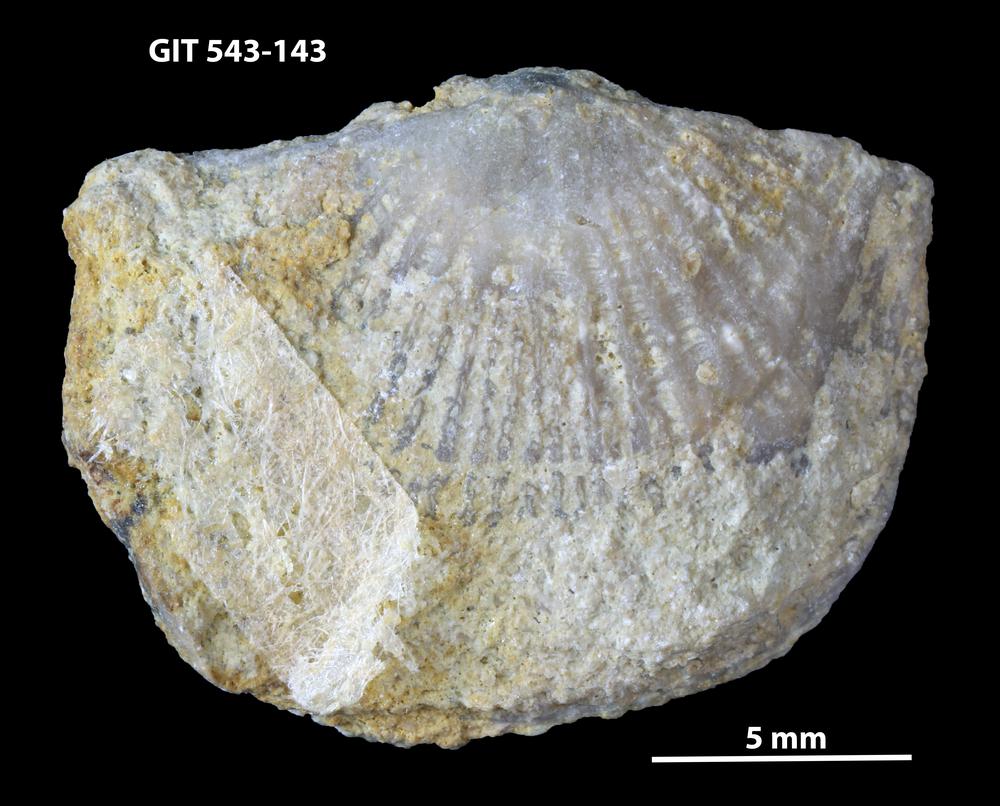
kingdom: Animalia
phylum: Brachiopoda
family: Gonambonitidae
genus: Estlandia
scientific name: Estlandia Orthisina marginata
